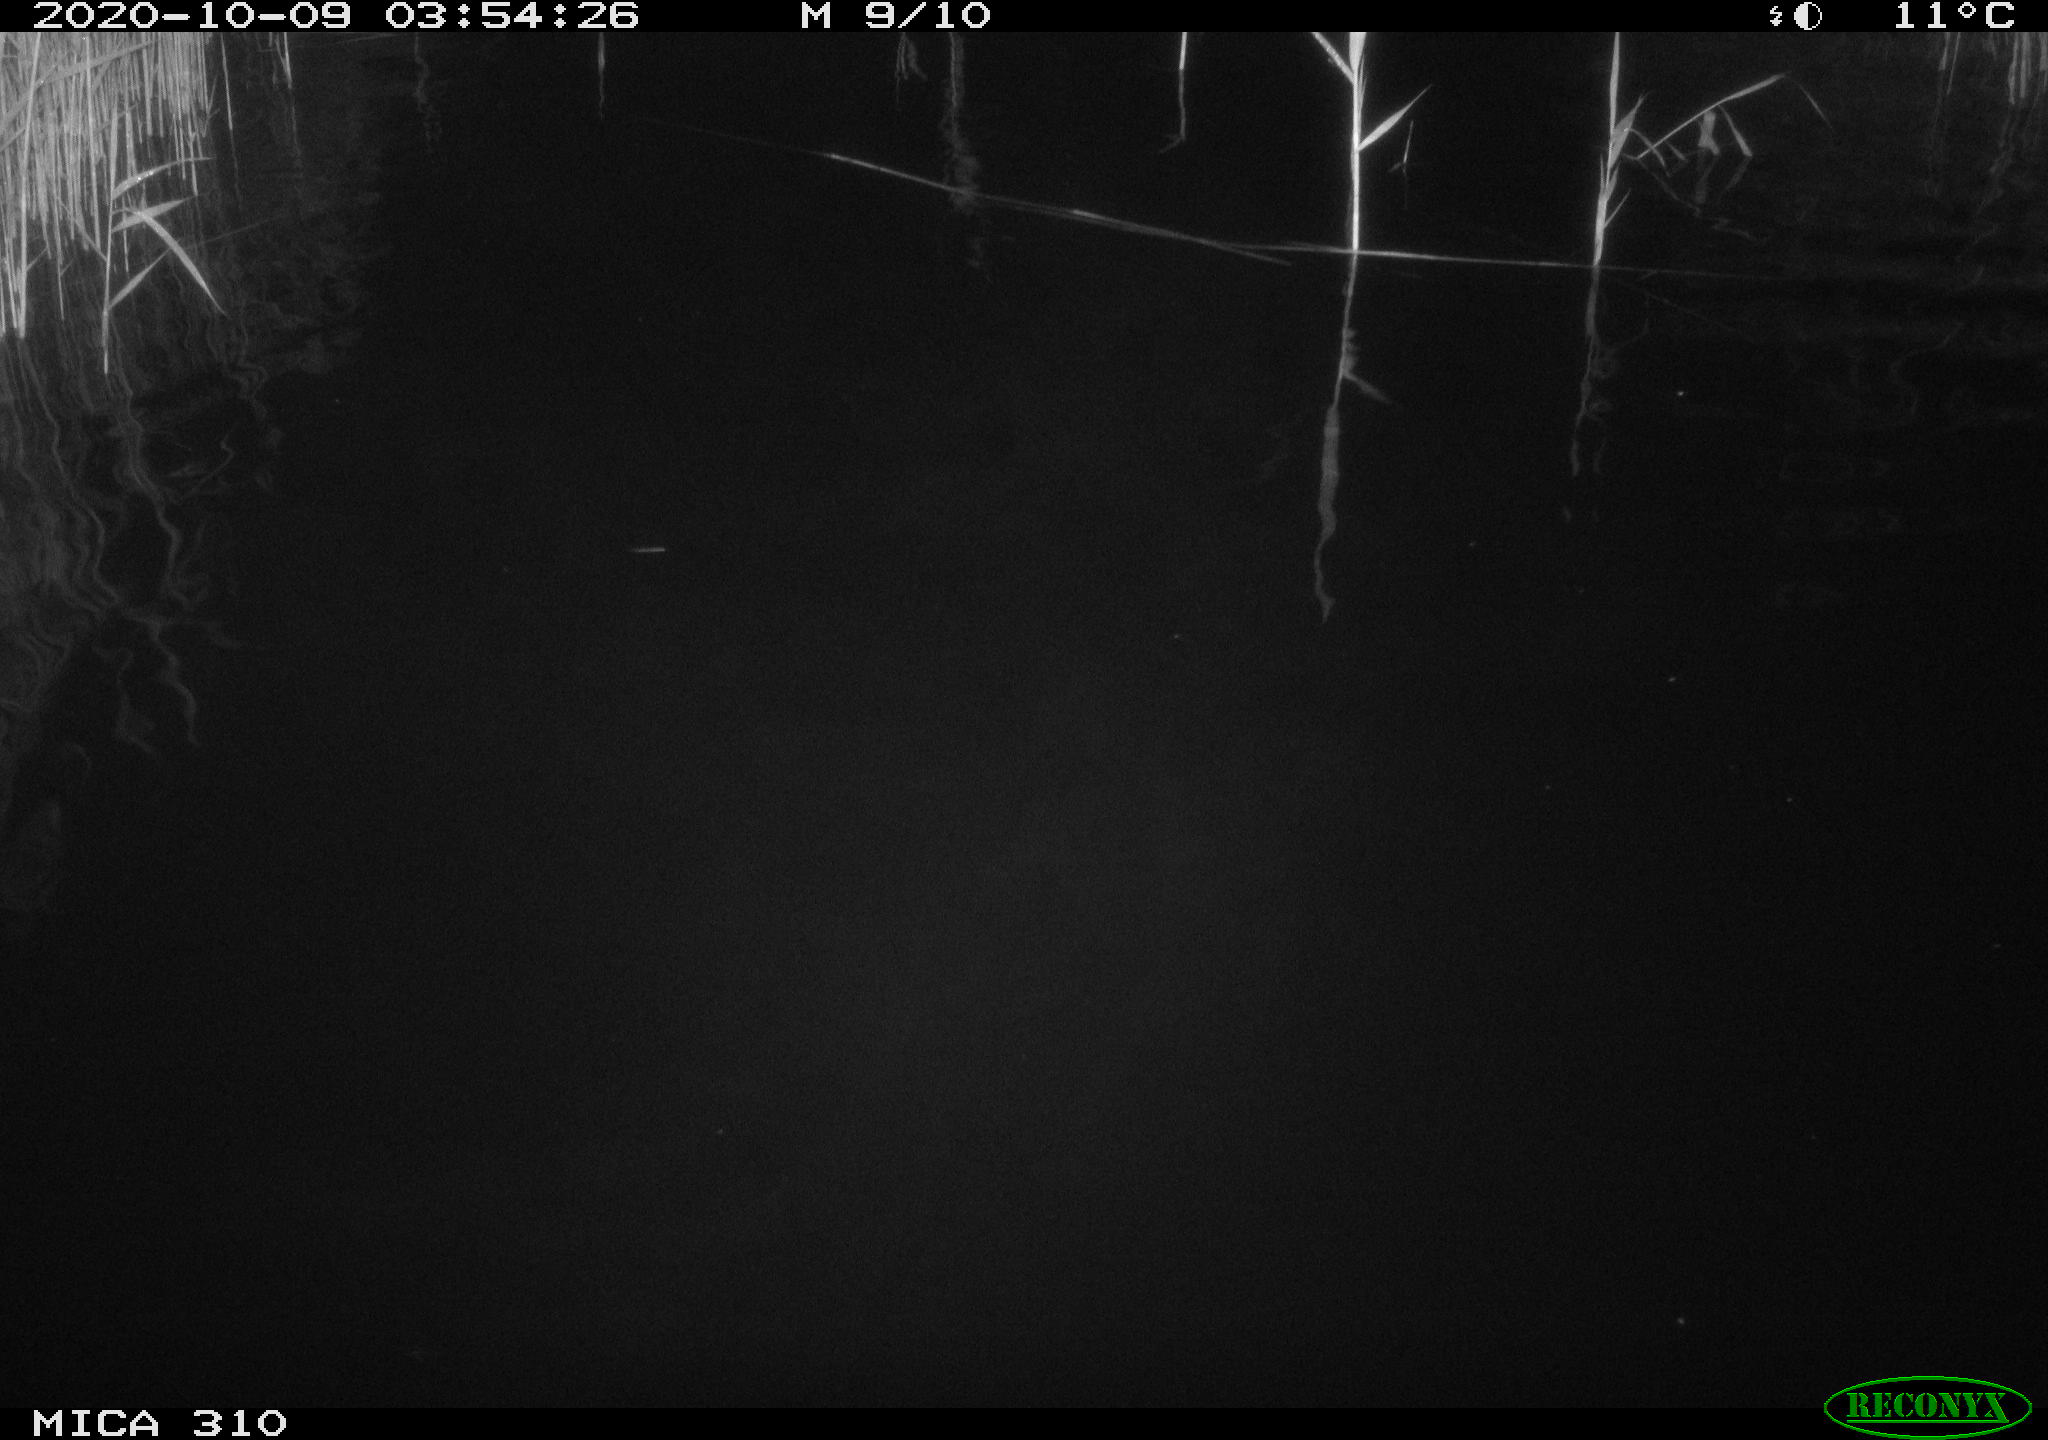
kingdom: Animalia
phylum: Chordata
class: Mammalia
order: Rodentia
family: Cricetidae
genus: Ondatra
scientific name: Ondatra zibethicus
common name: Muskrat
